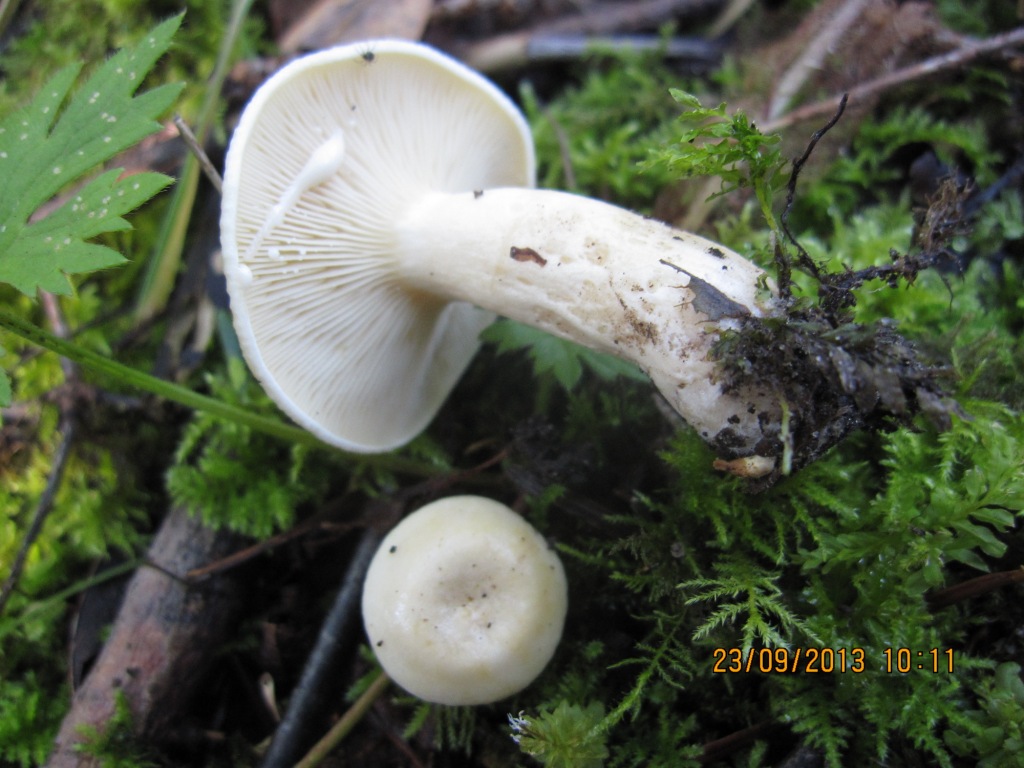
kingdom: Fungi
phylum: Basidiomycota
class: Agaricomycetes
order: Russulales
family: Russulaceae
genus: Lactarius
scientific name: Lactarius aspideus
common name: pile-mælkehat
